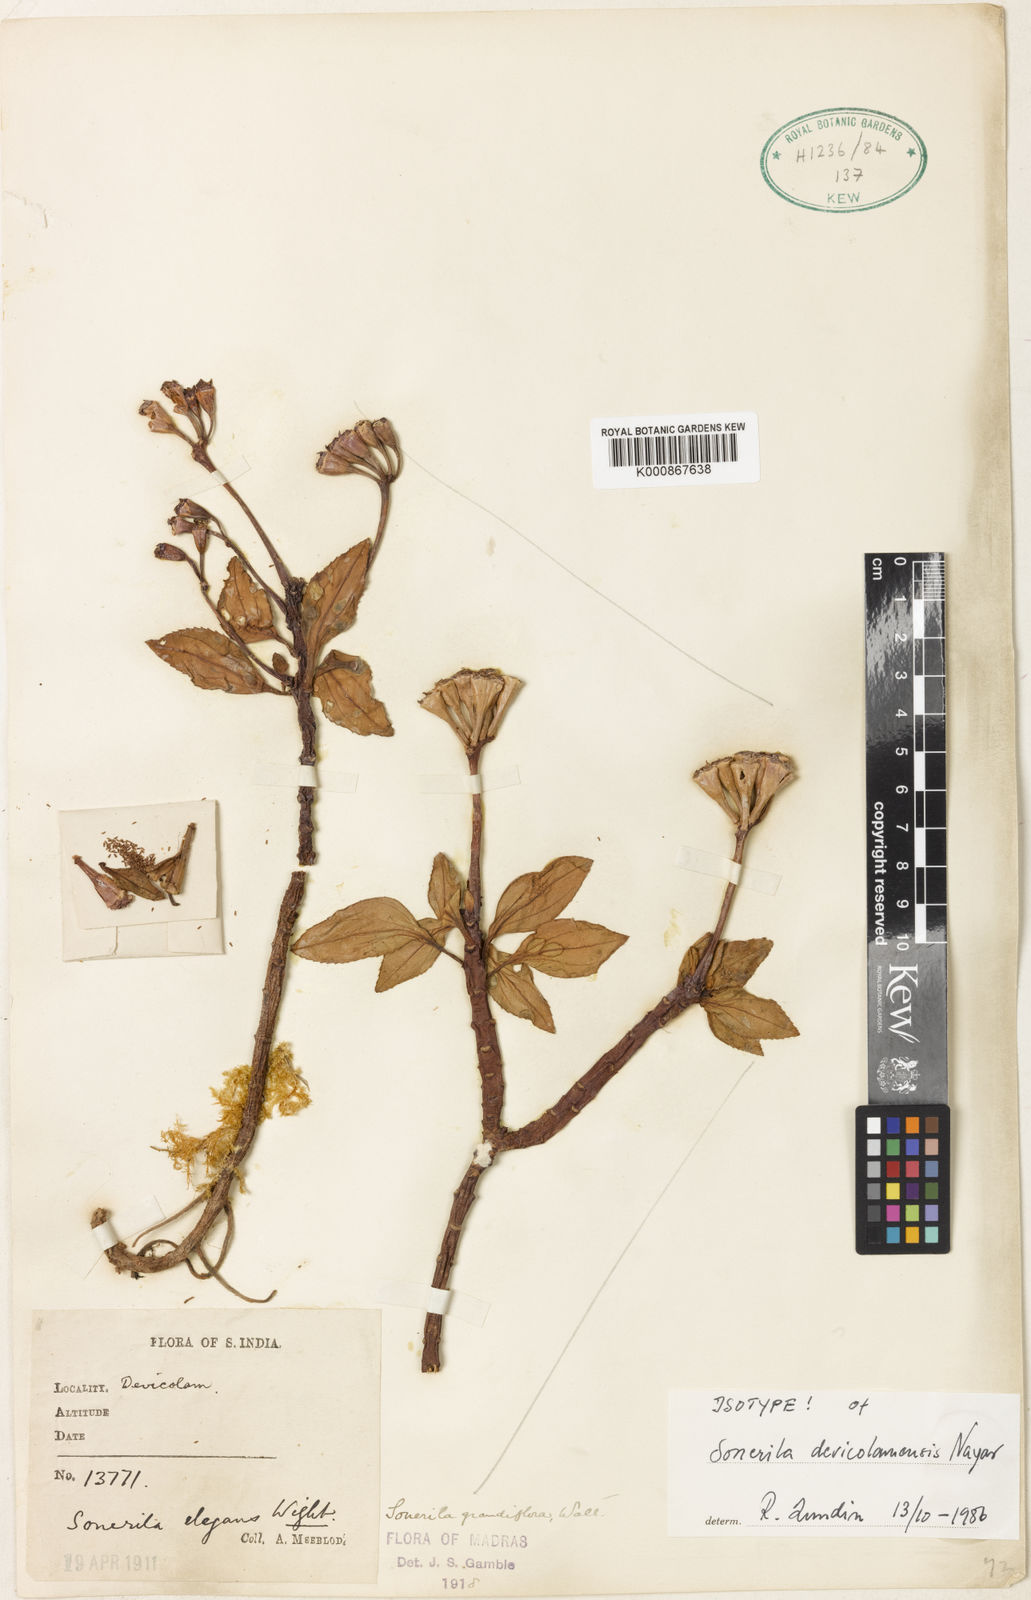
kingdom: Plantae
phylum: Tracheophyta
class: Magnoliopsida
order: Myrtales
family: Melastomataceae
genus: Sonerila
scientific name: Sonerila devicolamensis
